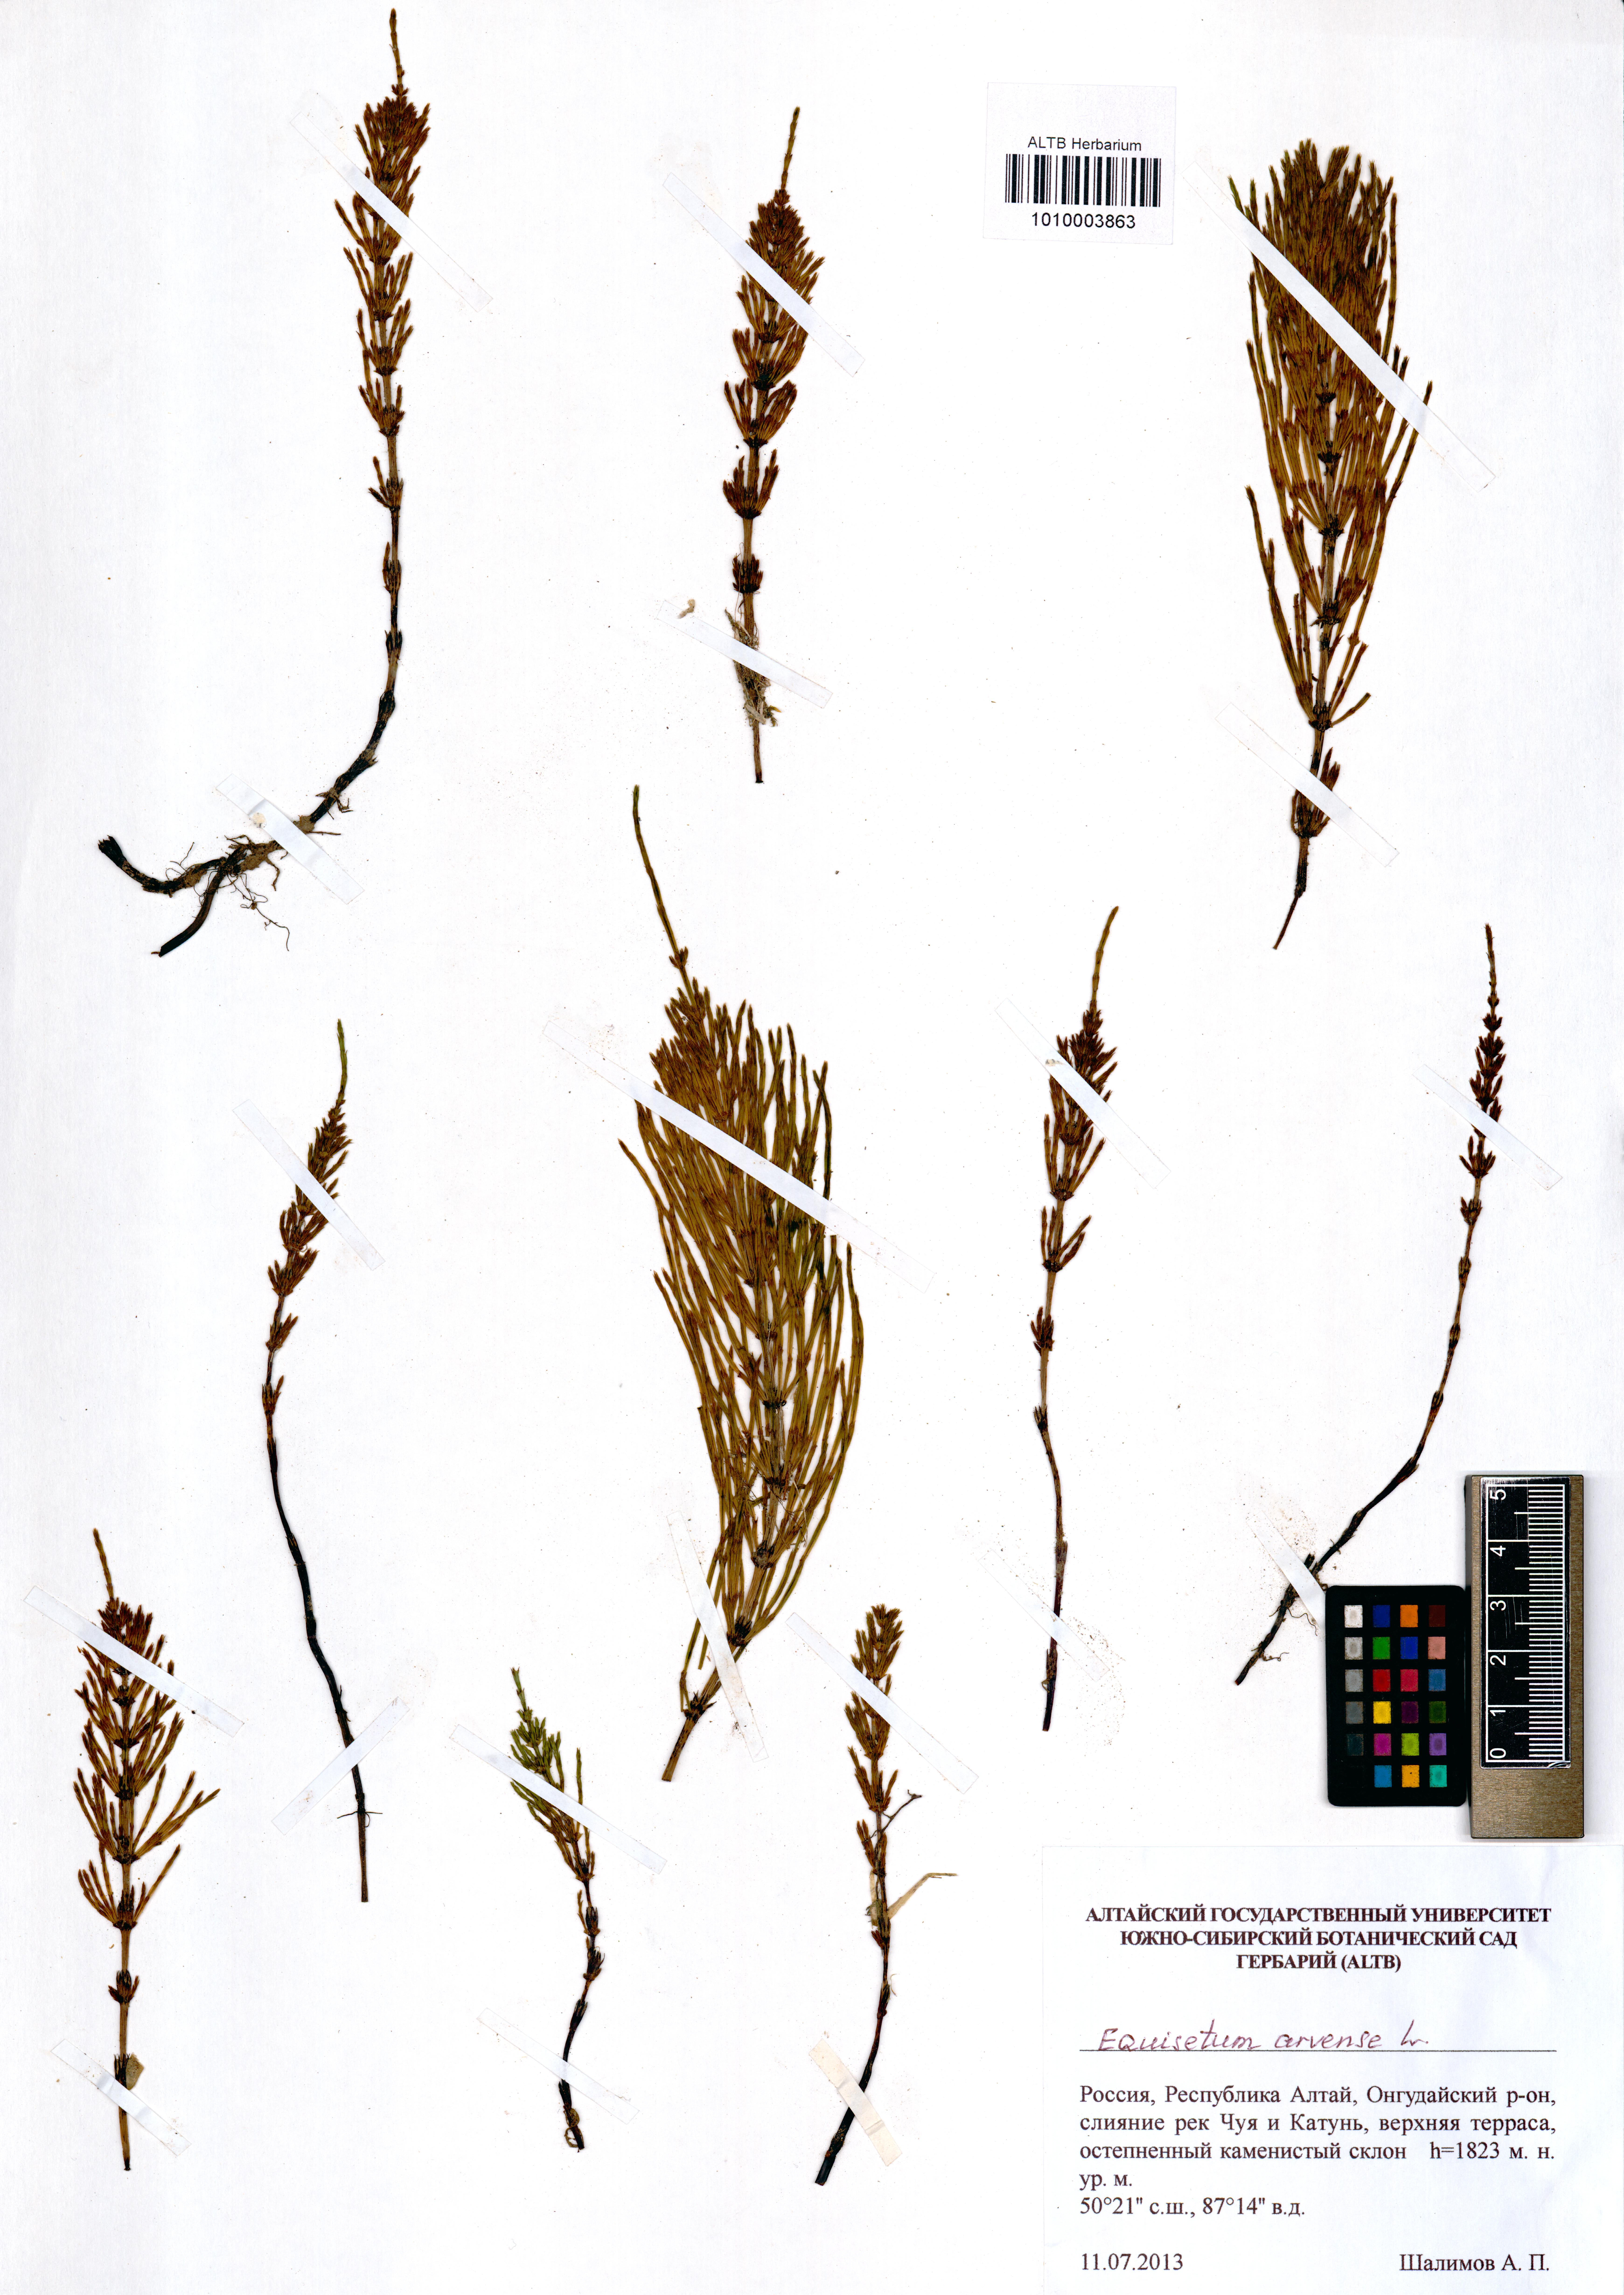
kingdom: Plantae
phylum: Tracheophyta
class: Polypodiopsida
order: Equisetales
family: Equisetaceae
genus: Equisetum
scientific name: Equisetum arvense
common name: Field horsetail
